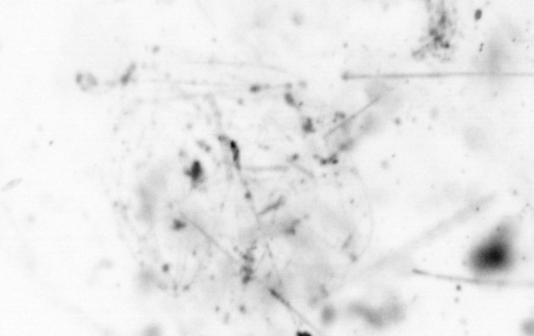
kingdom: Animalia
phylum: Chordata
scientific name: Chordata
